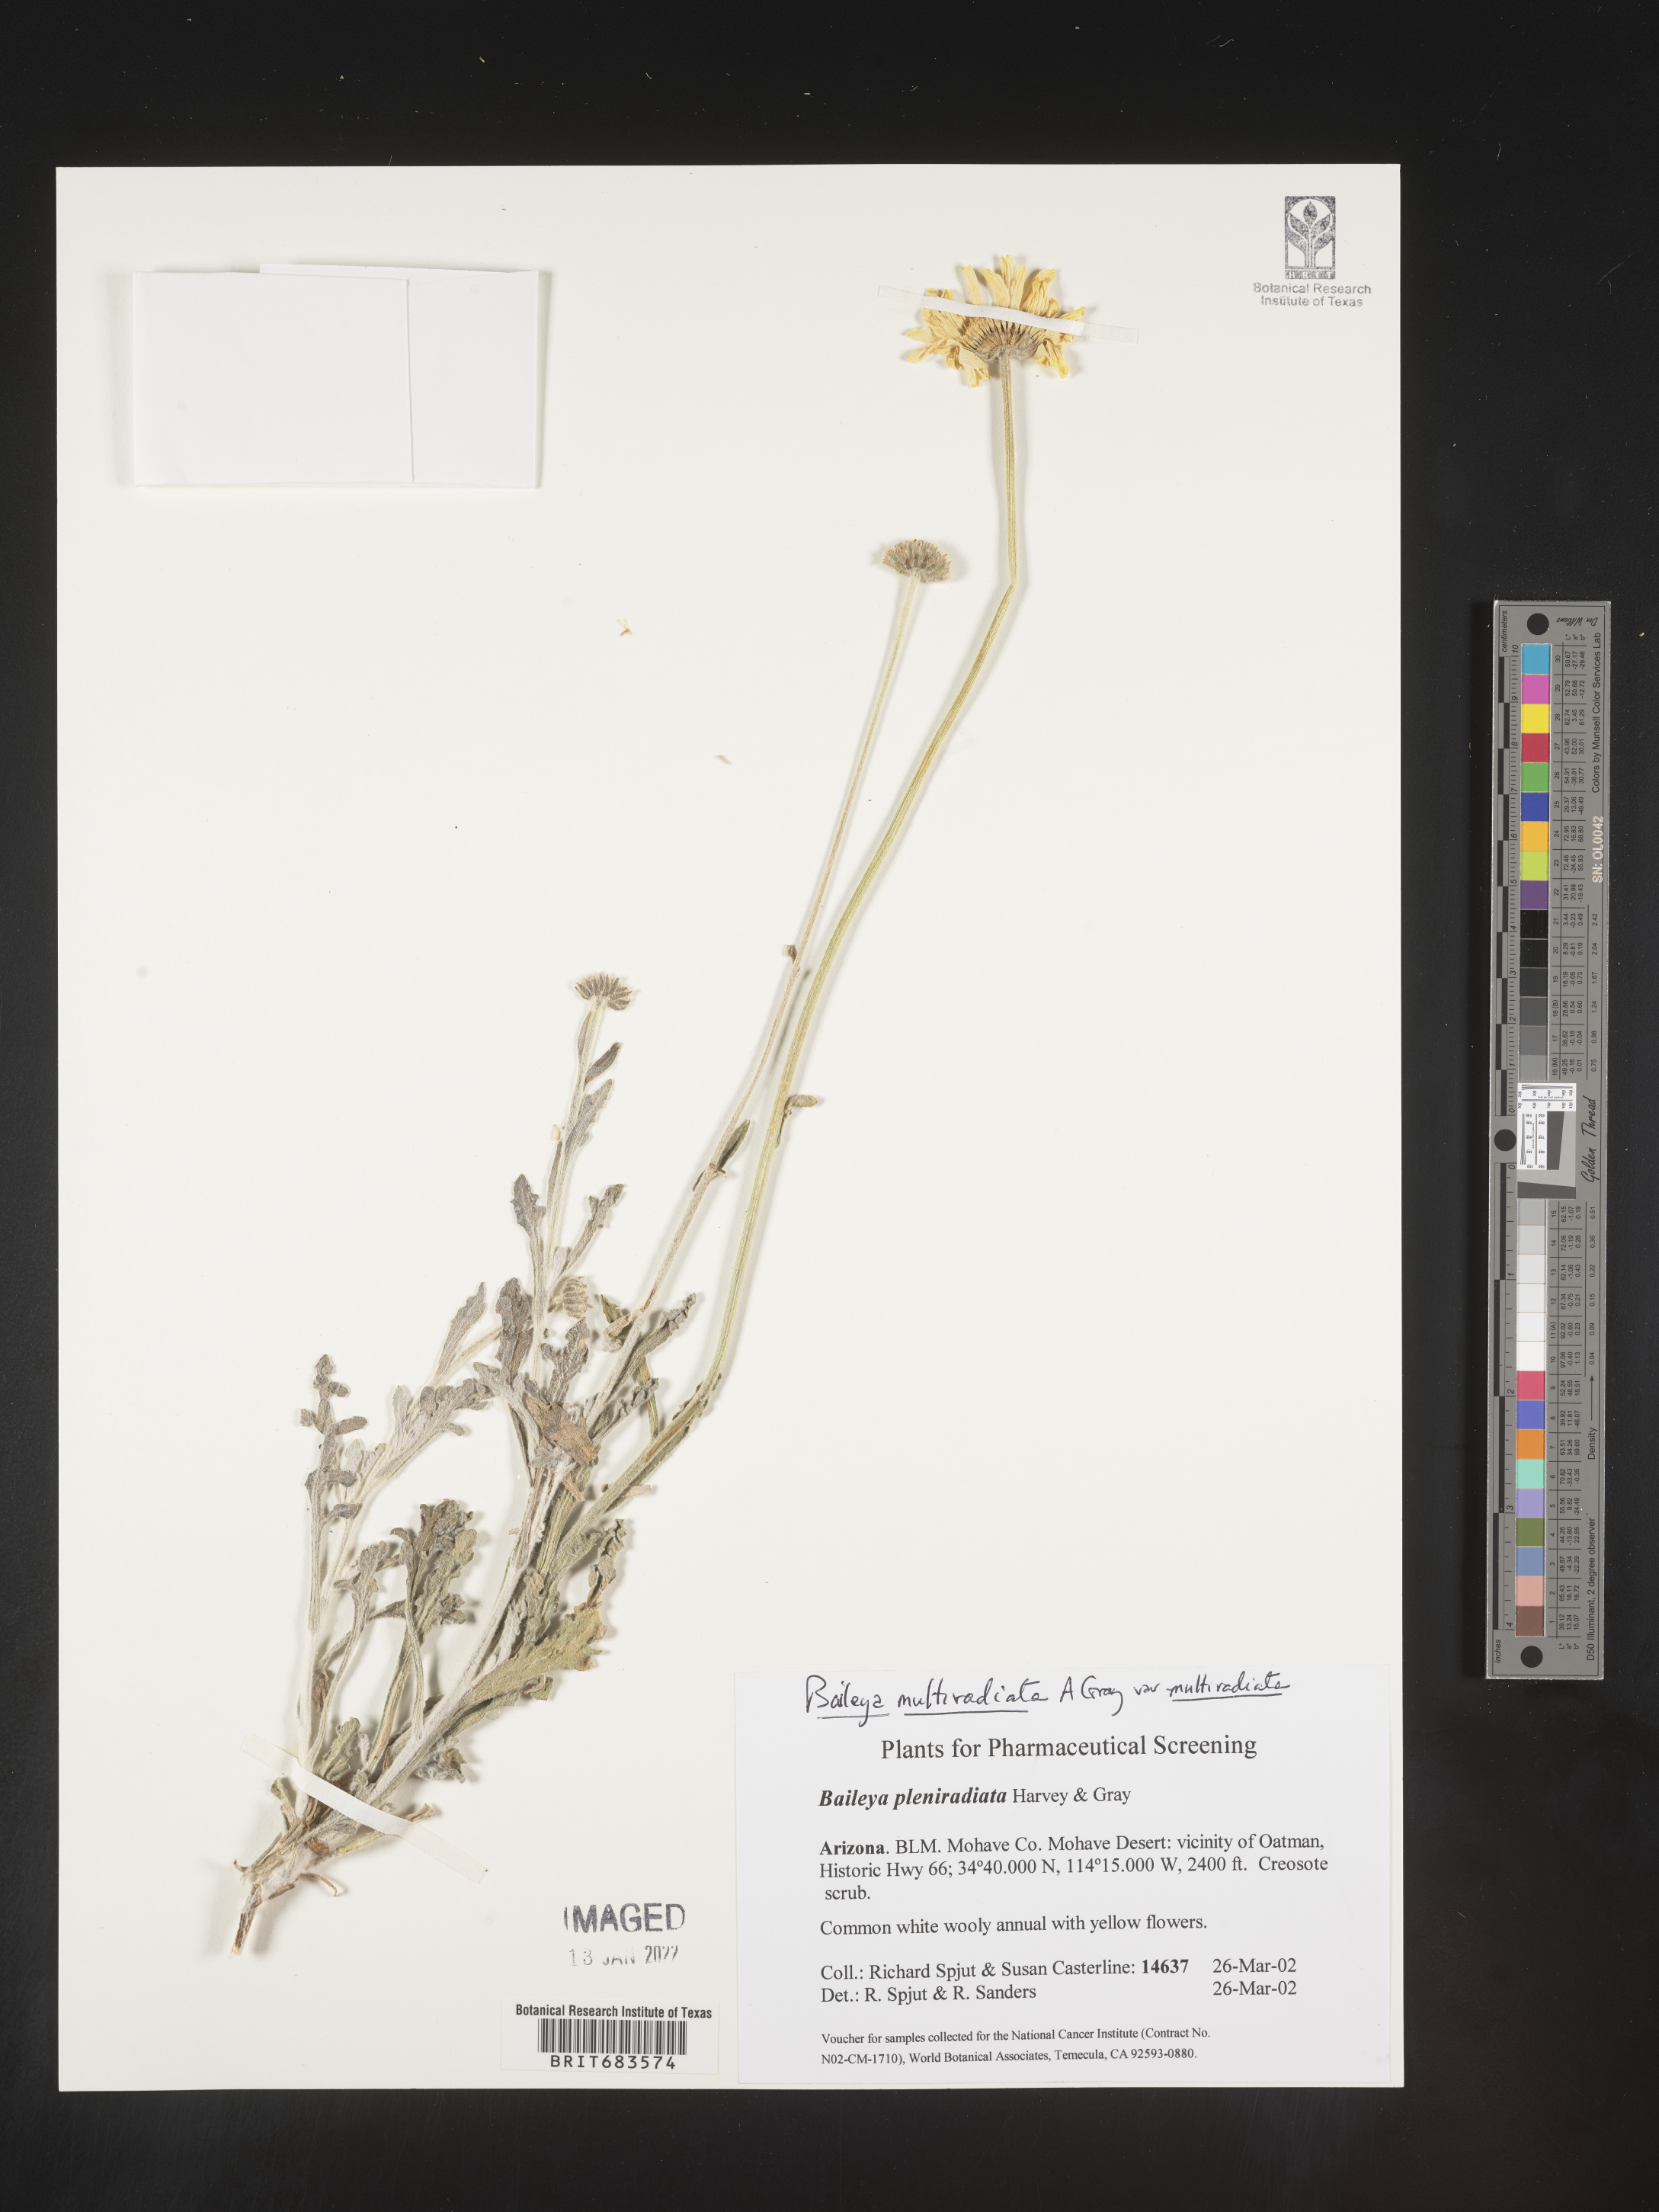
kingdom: Plantae
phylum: Tracheophyta
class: Magnoliopsida
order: Asterales
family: Asteraceae
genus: Baileya
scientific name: Baileya multiradiata
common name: Desert-marigold
